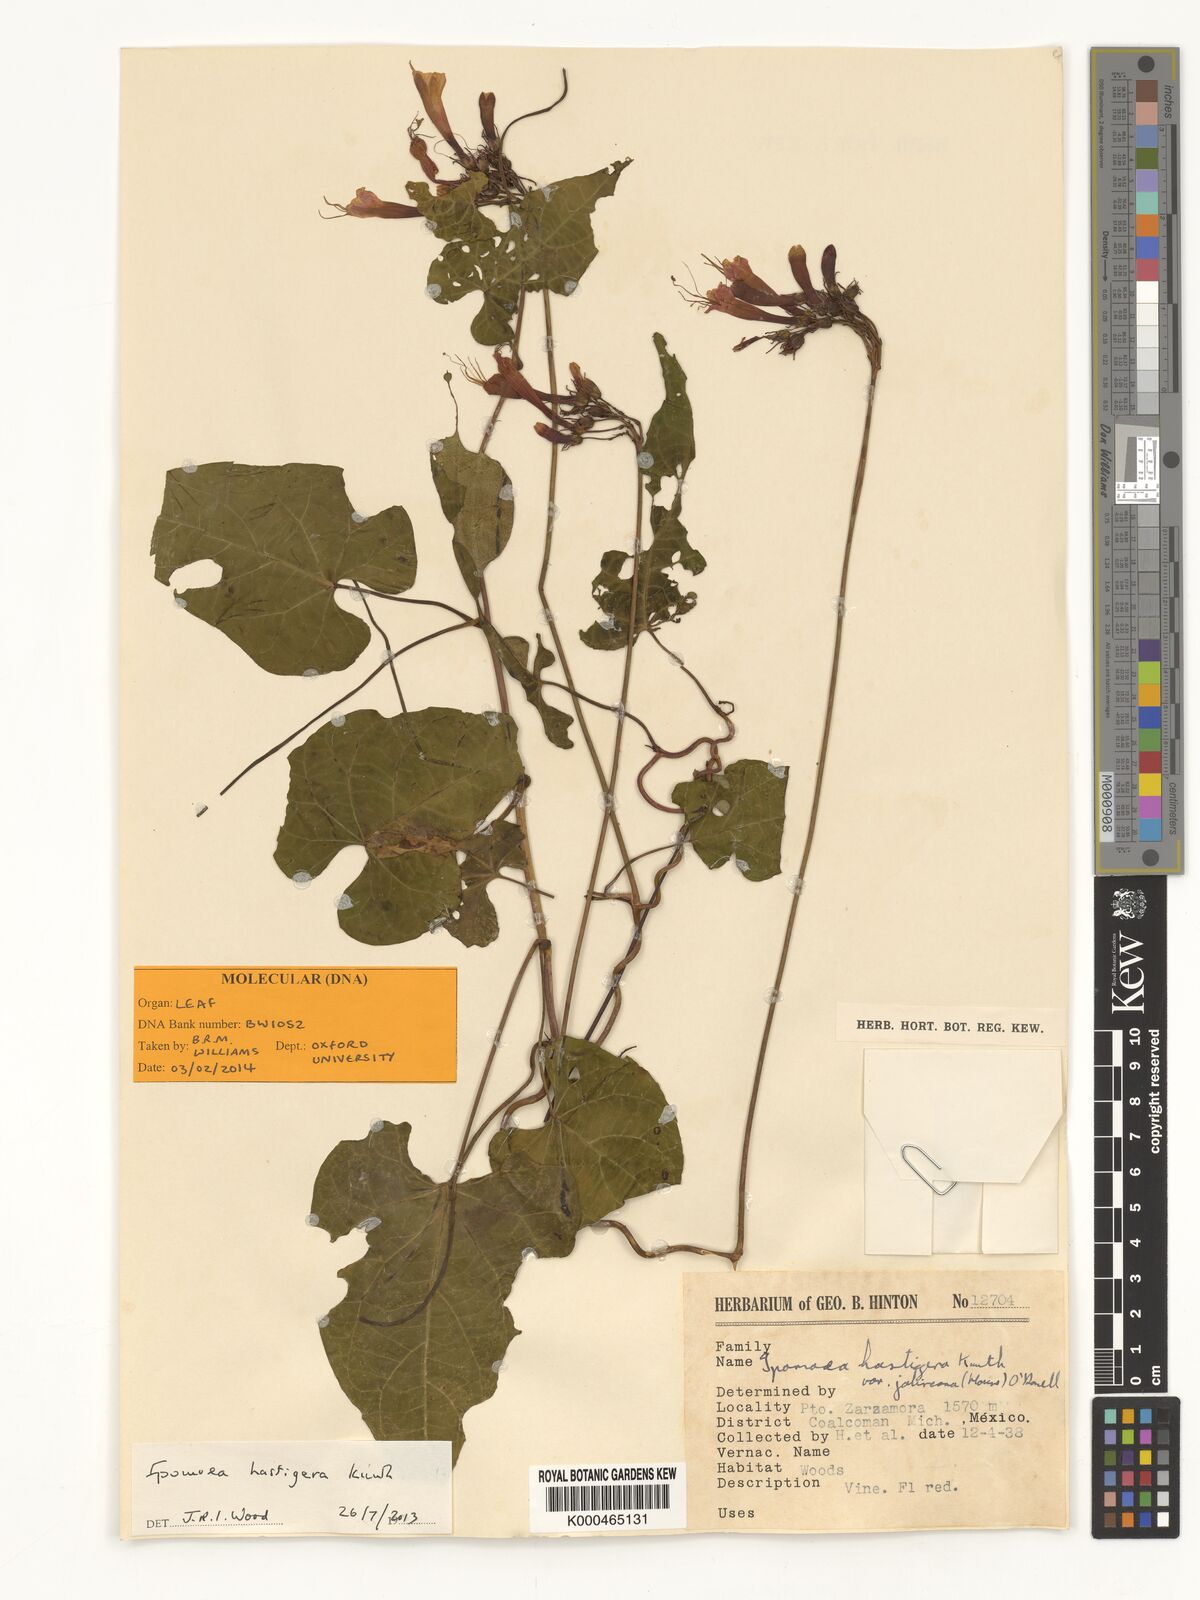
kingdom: Plantae
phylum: Tracheophyta
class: Magnoliopsida
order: Solanales
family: Convolvulaceae
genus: Ipomoea
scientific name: Ipomoea spectata
